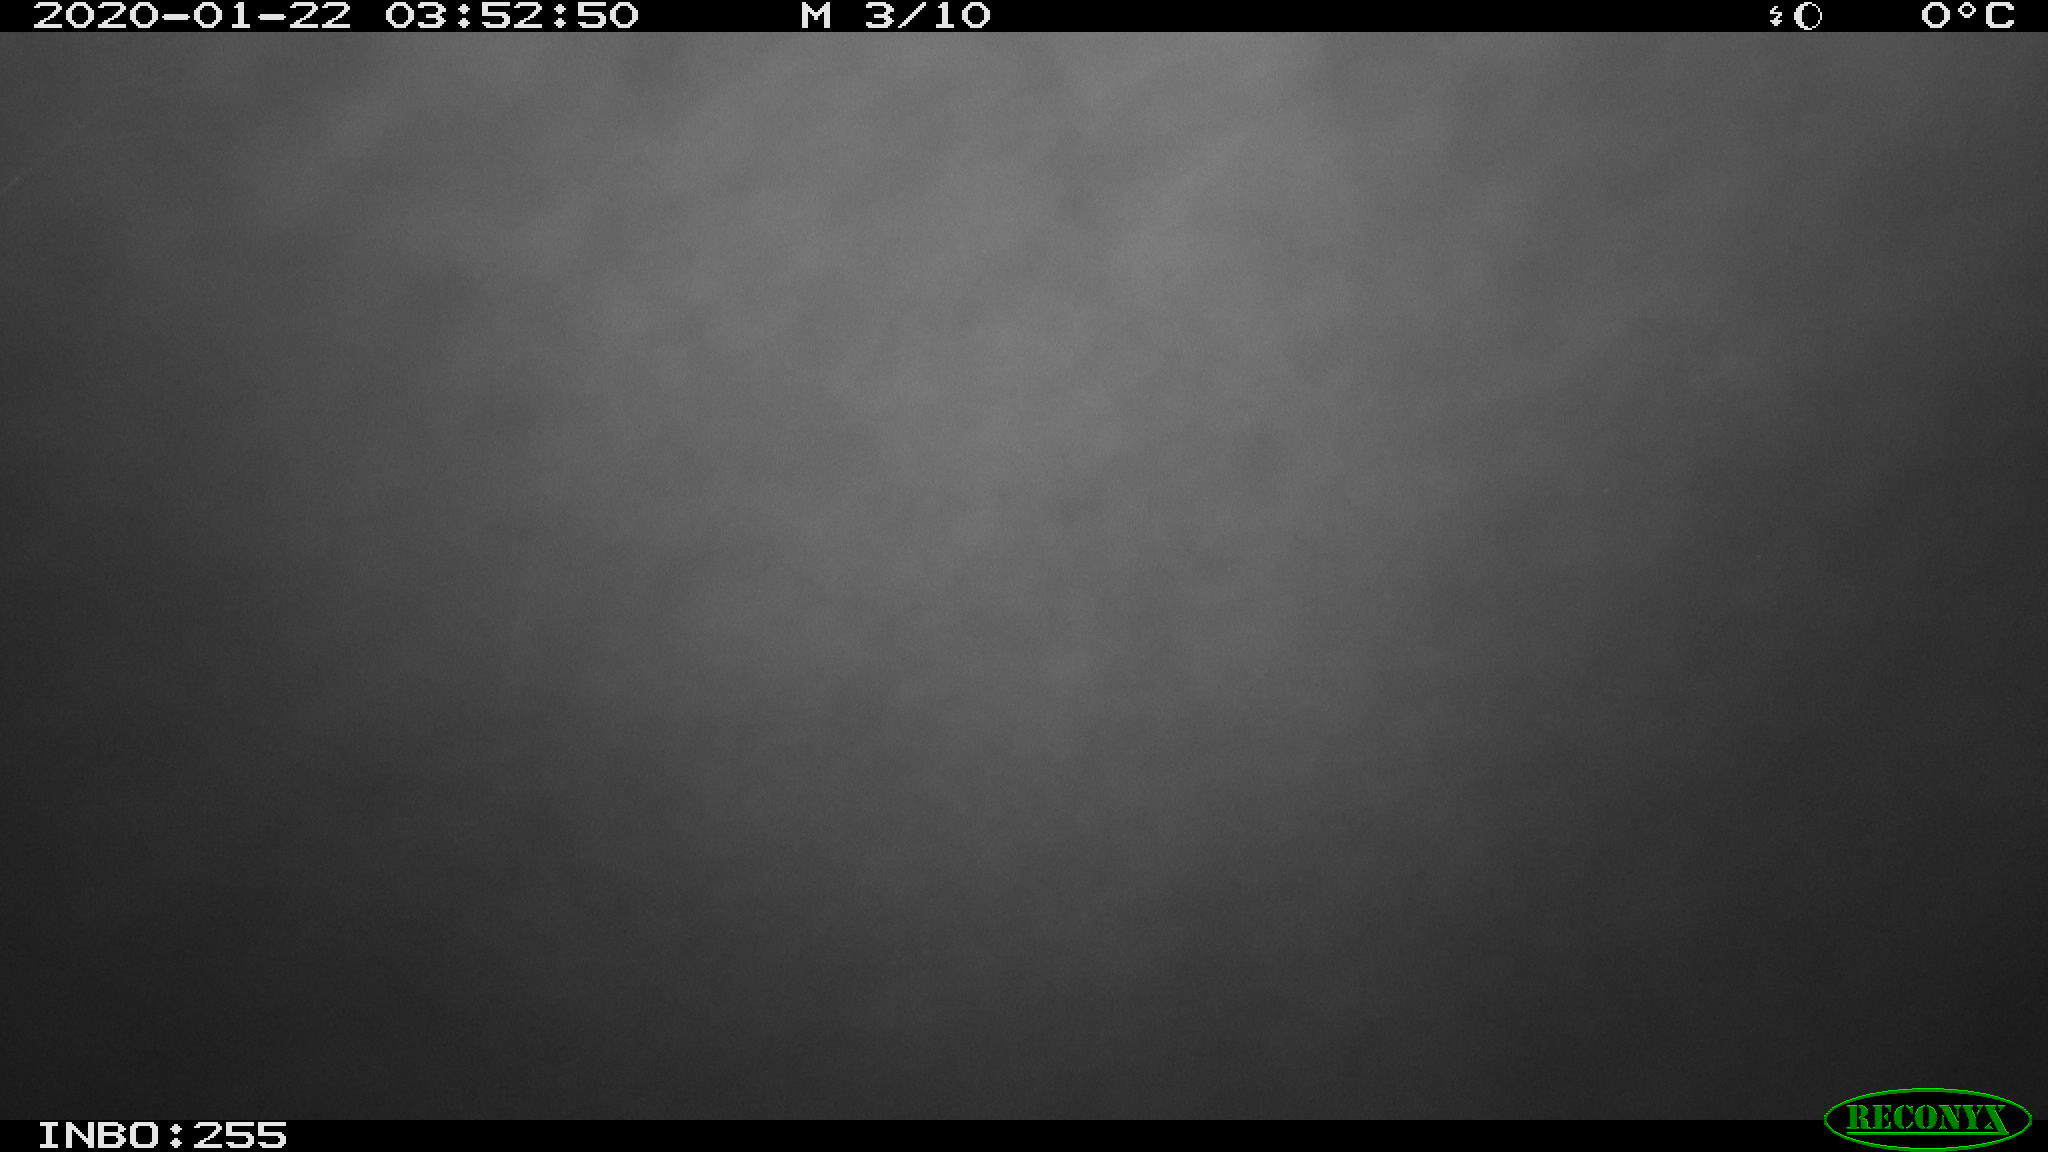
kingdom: Animalia
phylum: Chordata
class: Mammalia
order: Rodentia
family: Cricetidae
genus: Ondatra
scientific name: Ondatra zibethicus
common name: Muskrat
